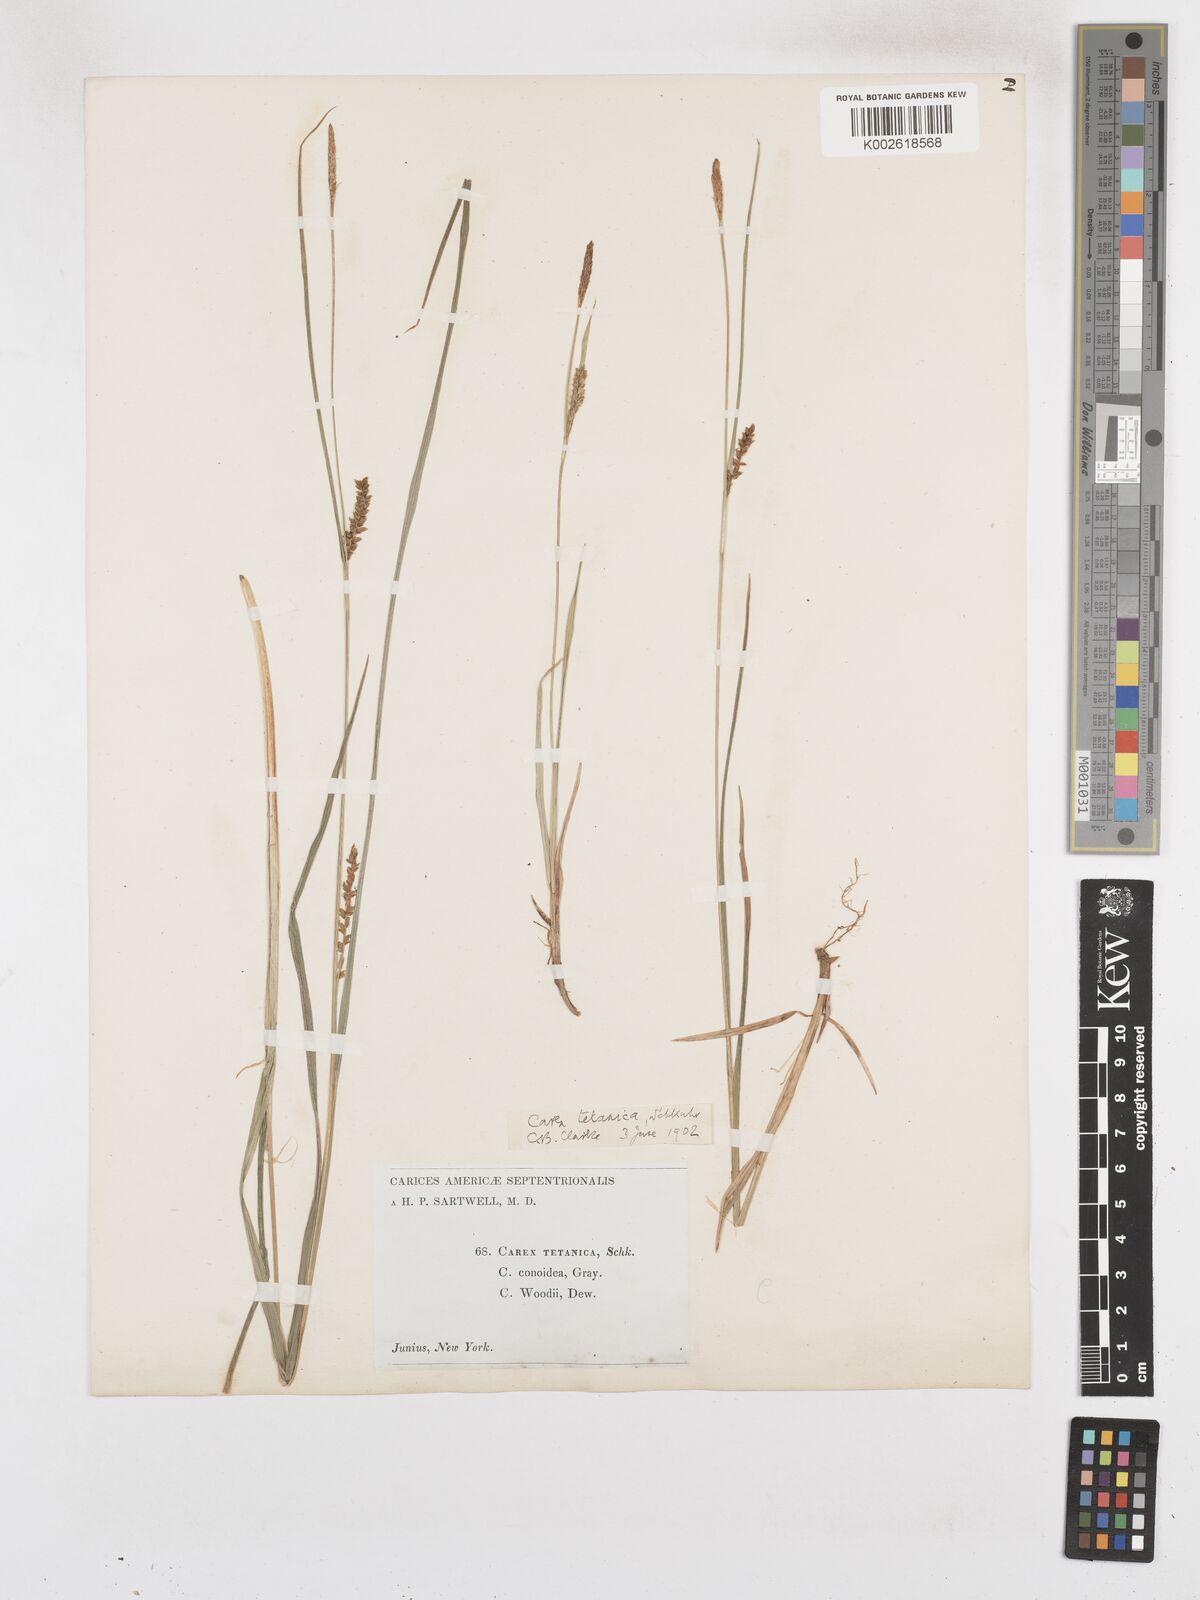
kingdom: Plantae
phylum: Tracheophyta
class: Liliopsida
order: Poales
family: Cyperaceae
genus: Carex
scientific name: Carex woodii
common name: Wood's sedge
